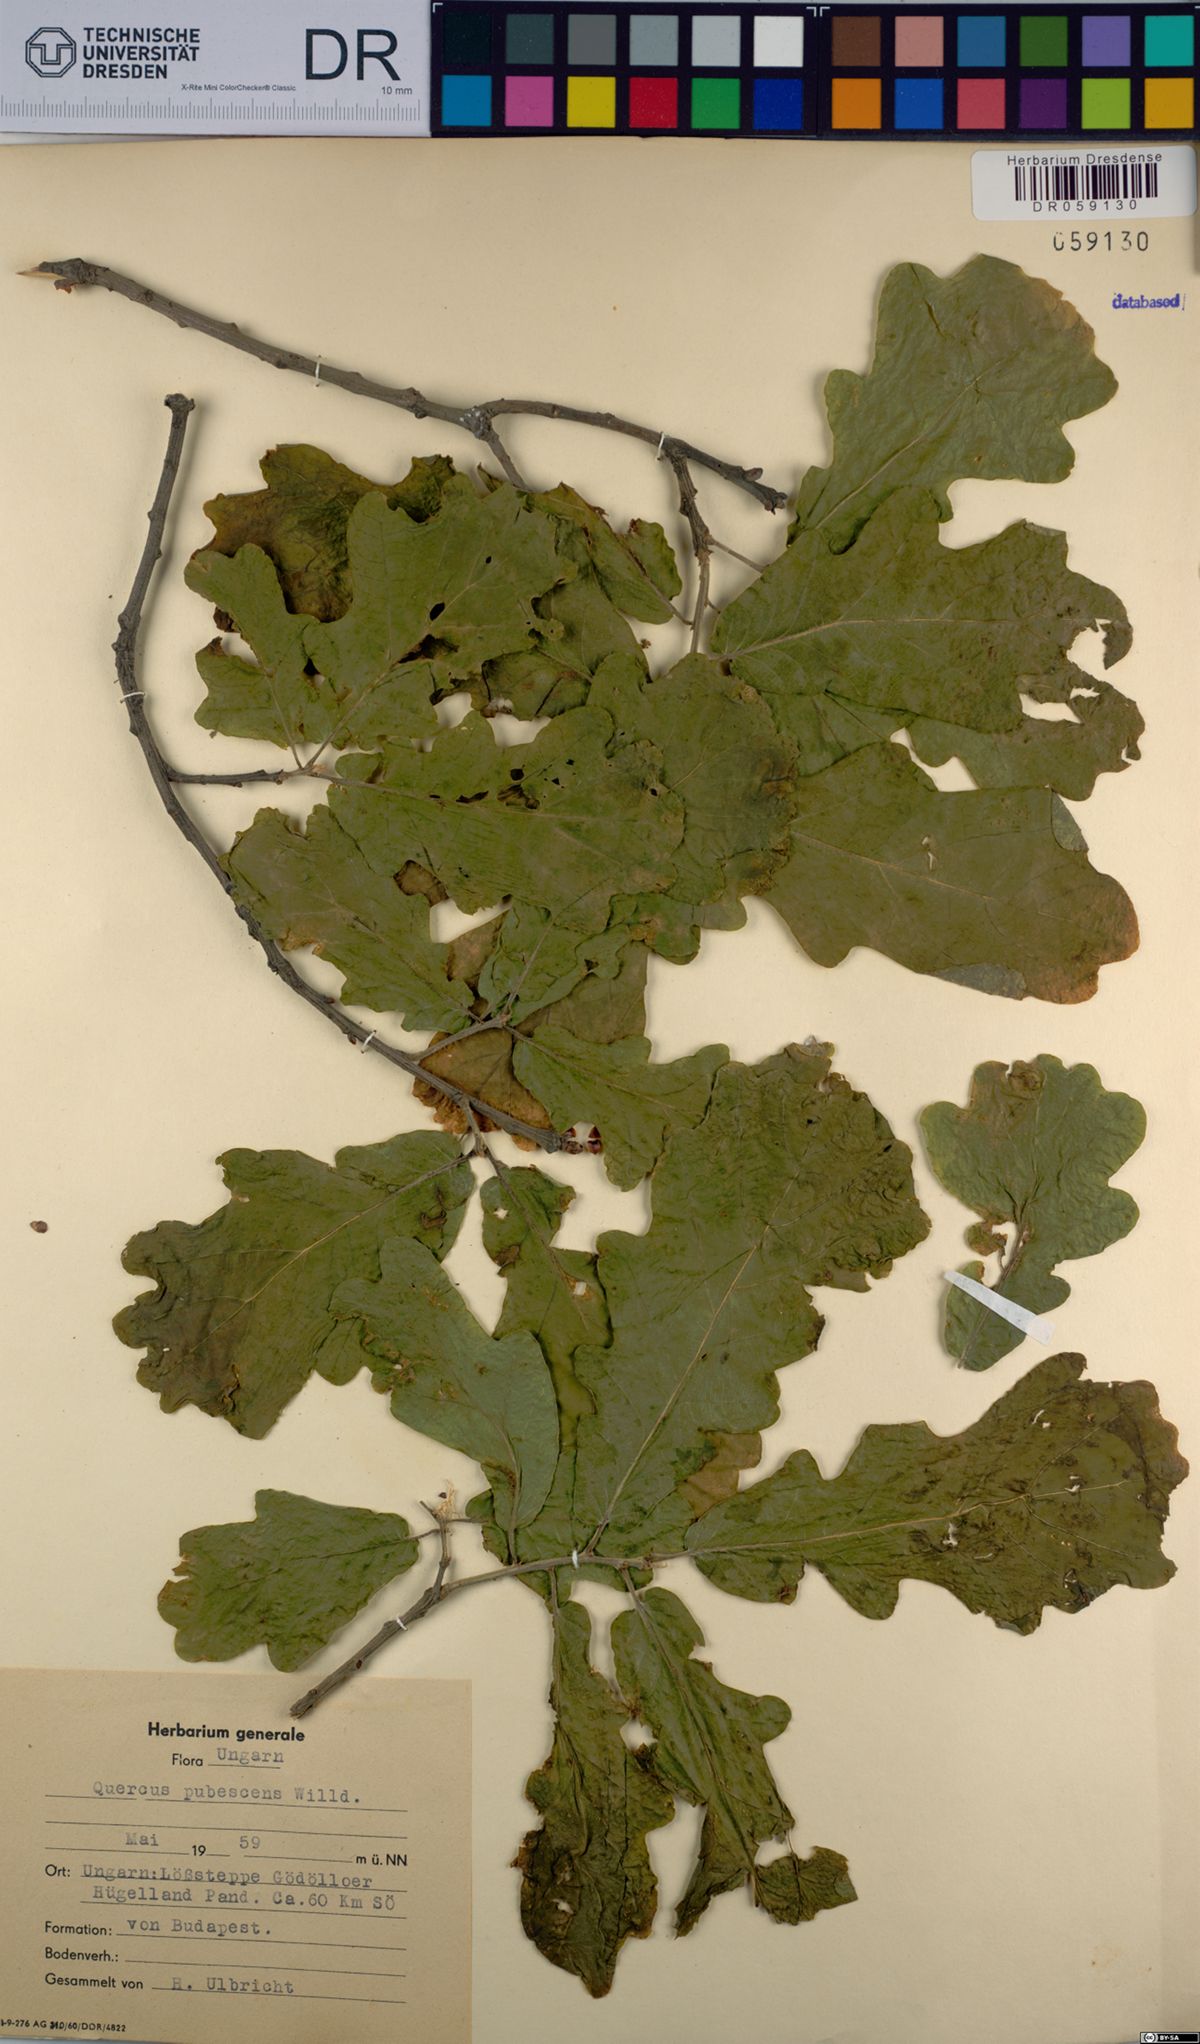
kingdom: Plantae
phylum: Tracheophyta
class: Magnoliopsida
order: Fagales
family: Fagaceae
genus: Quercus
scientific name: Quercus pubescens
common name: Downy oak
